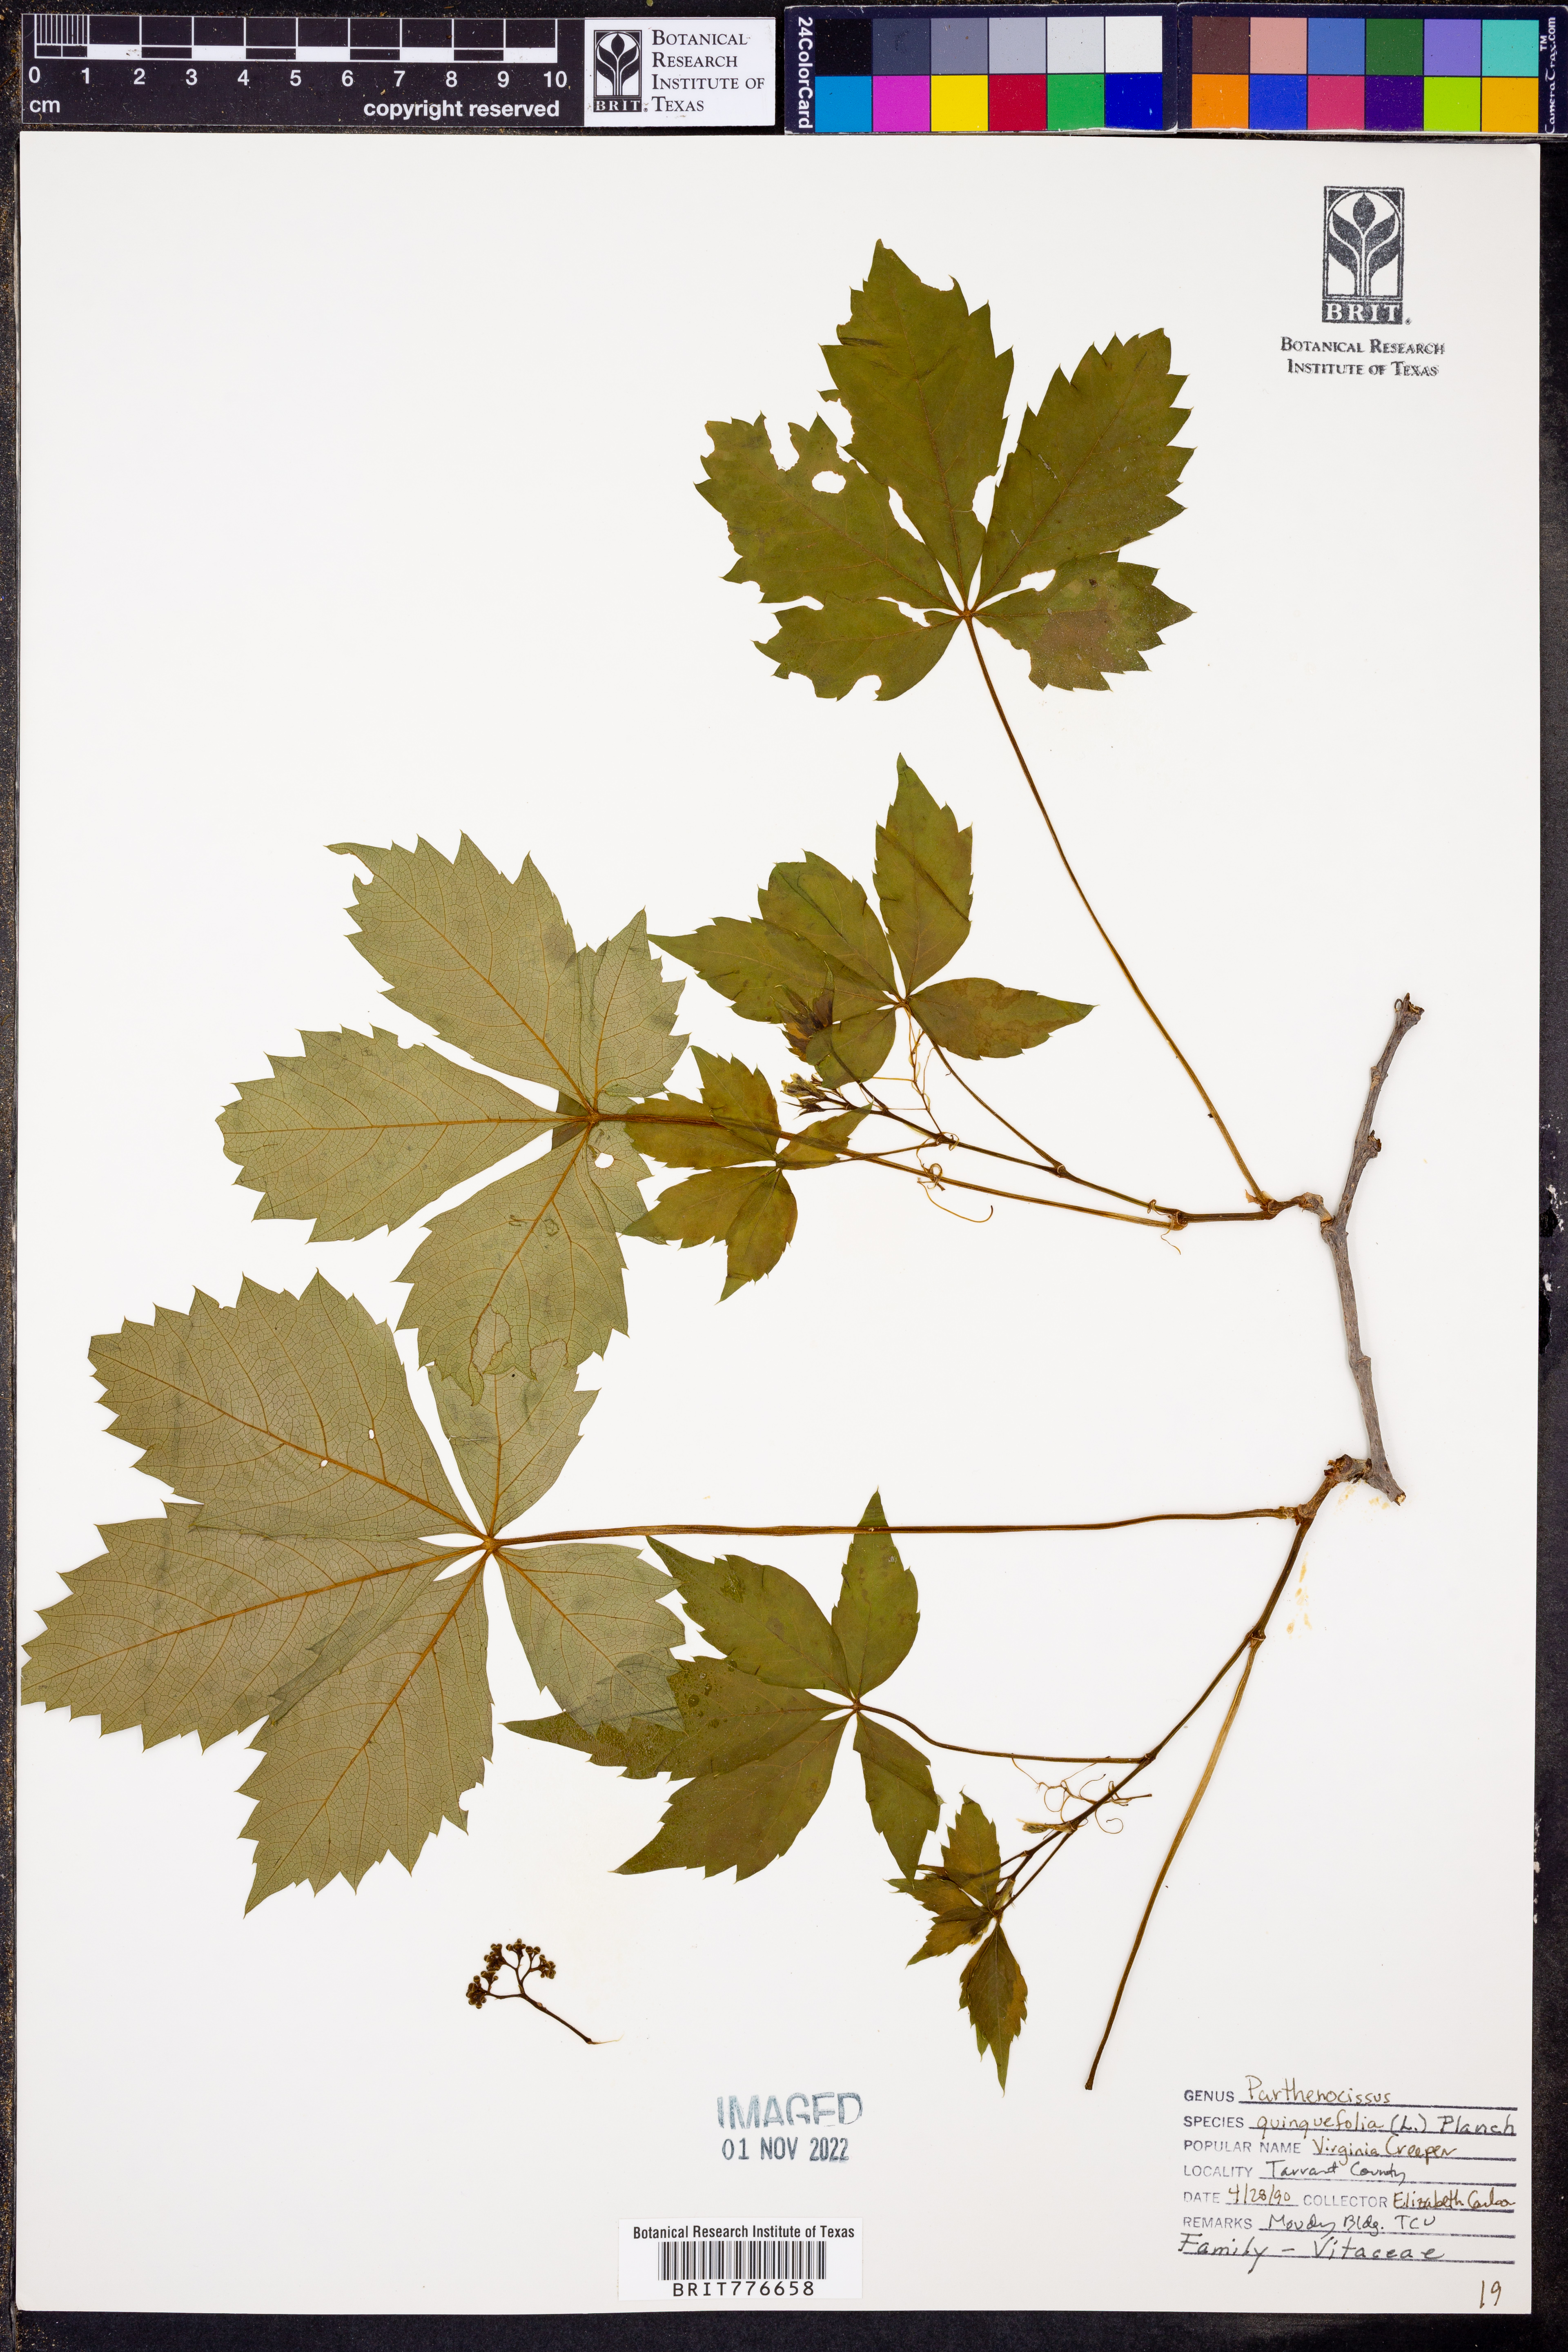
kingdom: Plantae
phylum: Tracheophyta
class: Magnoliopsida
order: Vitales
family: Vitaceae
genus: Parthenocissus
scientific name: Parthenocissus quinquefolia
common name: Virginia-creeper
